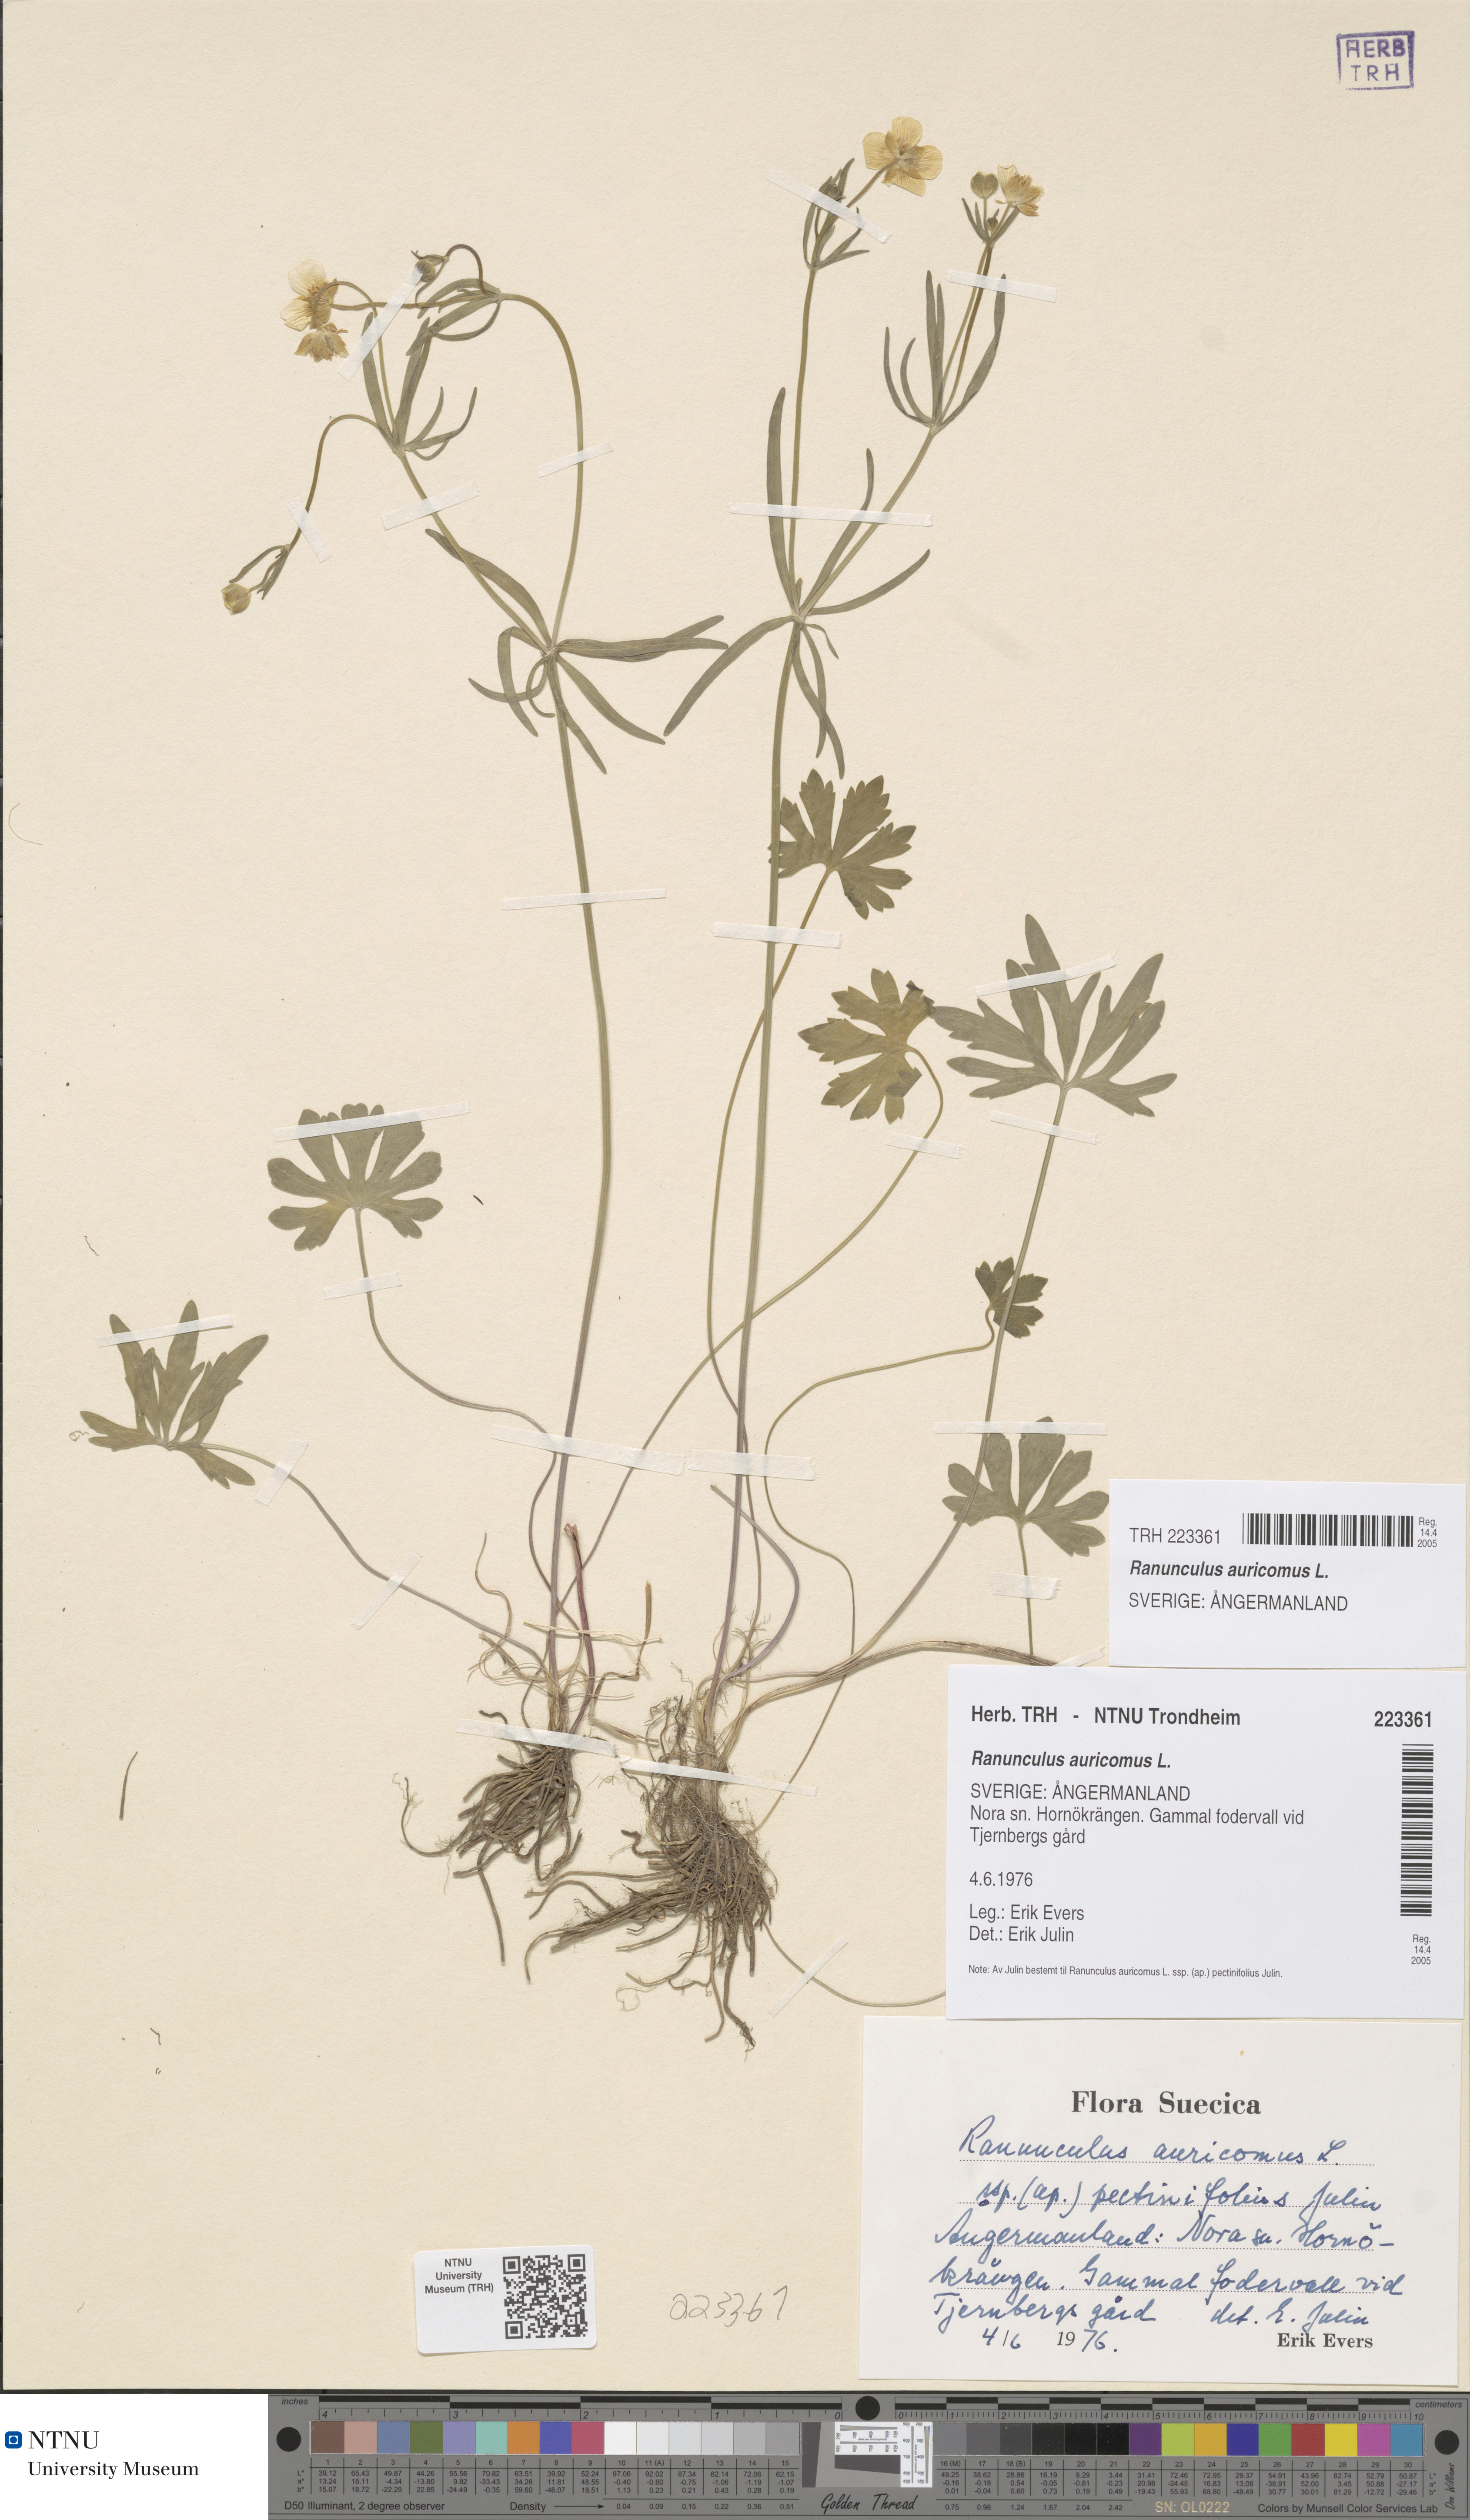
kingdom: Plantae
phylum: Tracheophyta
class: Magnoliopsida
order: Ranunculales
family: Ranunculaceae
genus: Ranunculus
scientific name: Ranunculus auricomus
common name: Goldilocks buttercup
